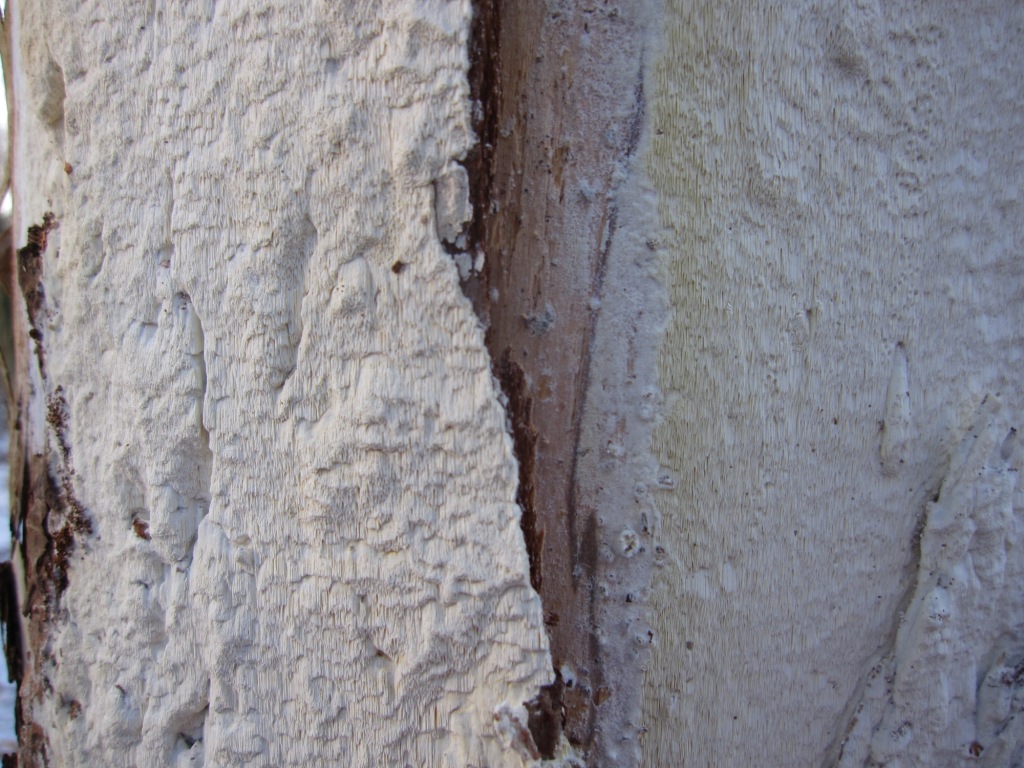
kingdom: Fungi
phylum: Basidiomycota
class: Agaricomycetes
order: Polyporales
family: Fomitopsidaceae
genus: Daedalea
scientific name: Daedalea xantha
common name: gul sejporesvamp
